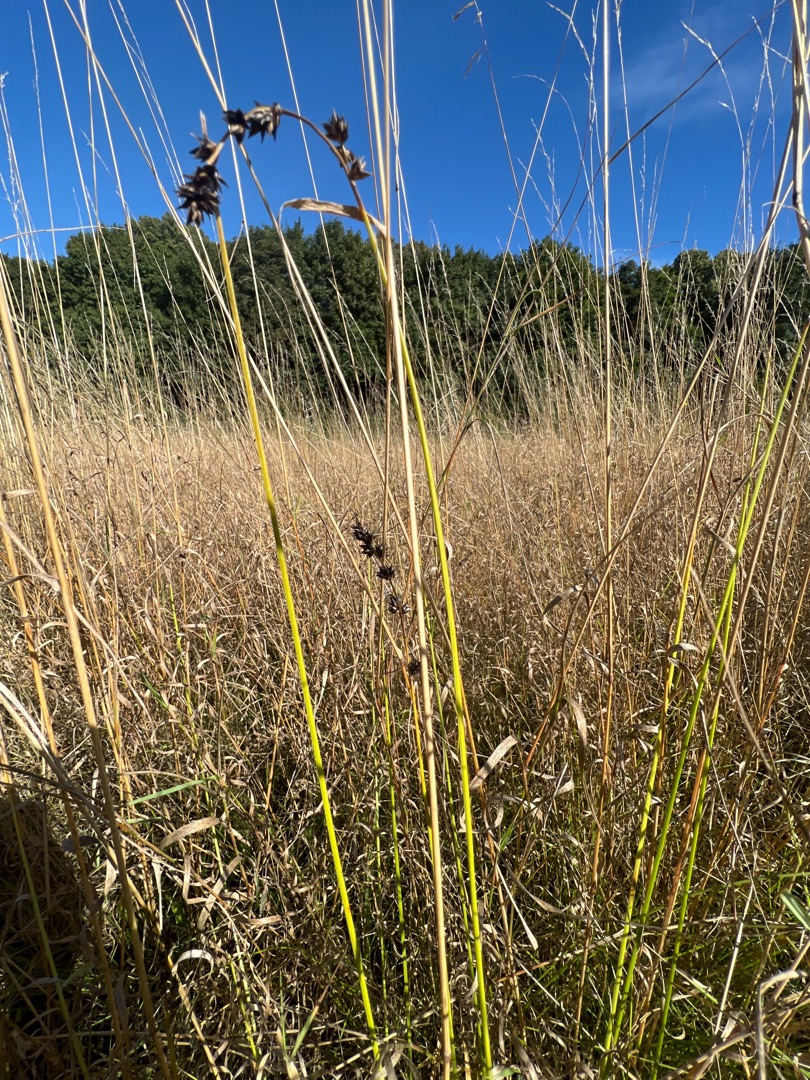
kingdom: Plantae
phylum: Tracheophyta
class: Liliopsida
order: Poales
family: Cyperaceae
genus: Carex
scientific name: Carex leersii
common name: Mellembrudt star (underart)
